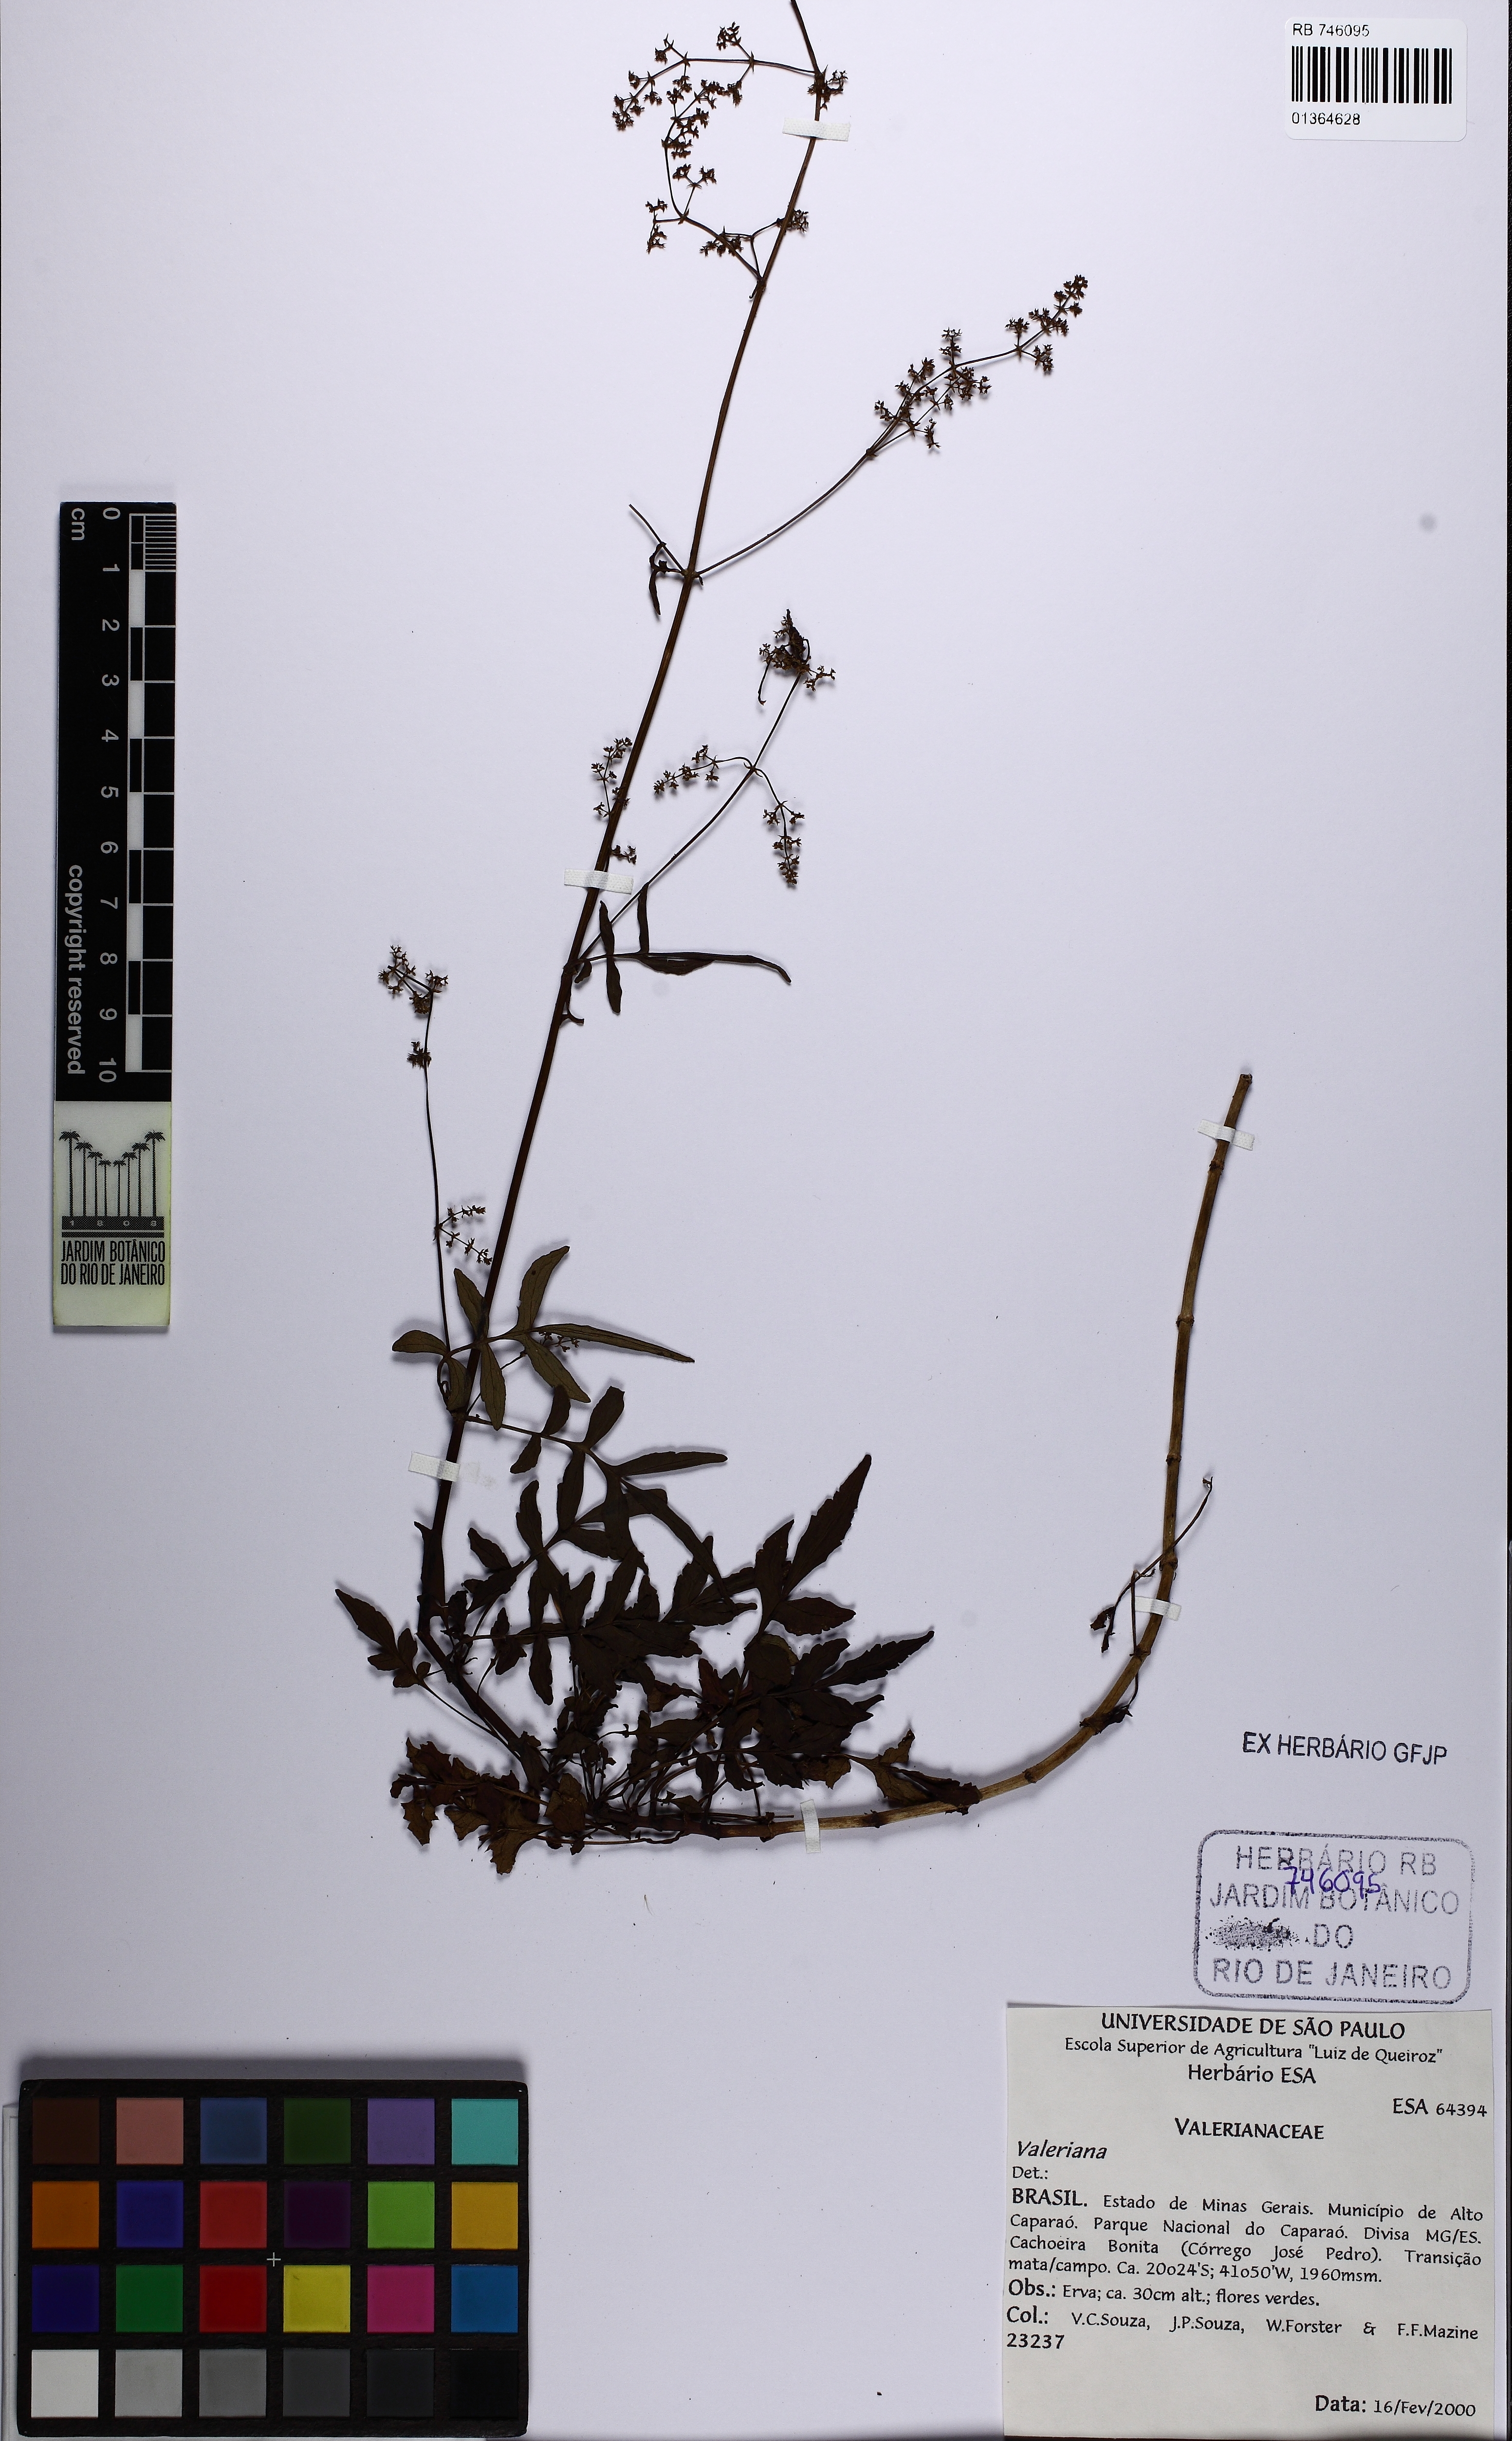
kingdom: Plantae
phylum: Tracheophyta
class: Magnoliopsida
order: Dipsacales
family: Caprifoliaceae
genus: Valeriana
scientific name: Valeriana
